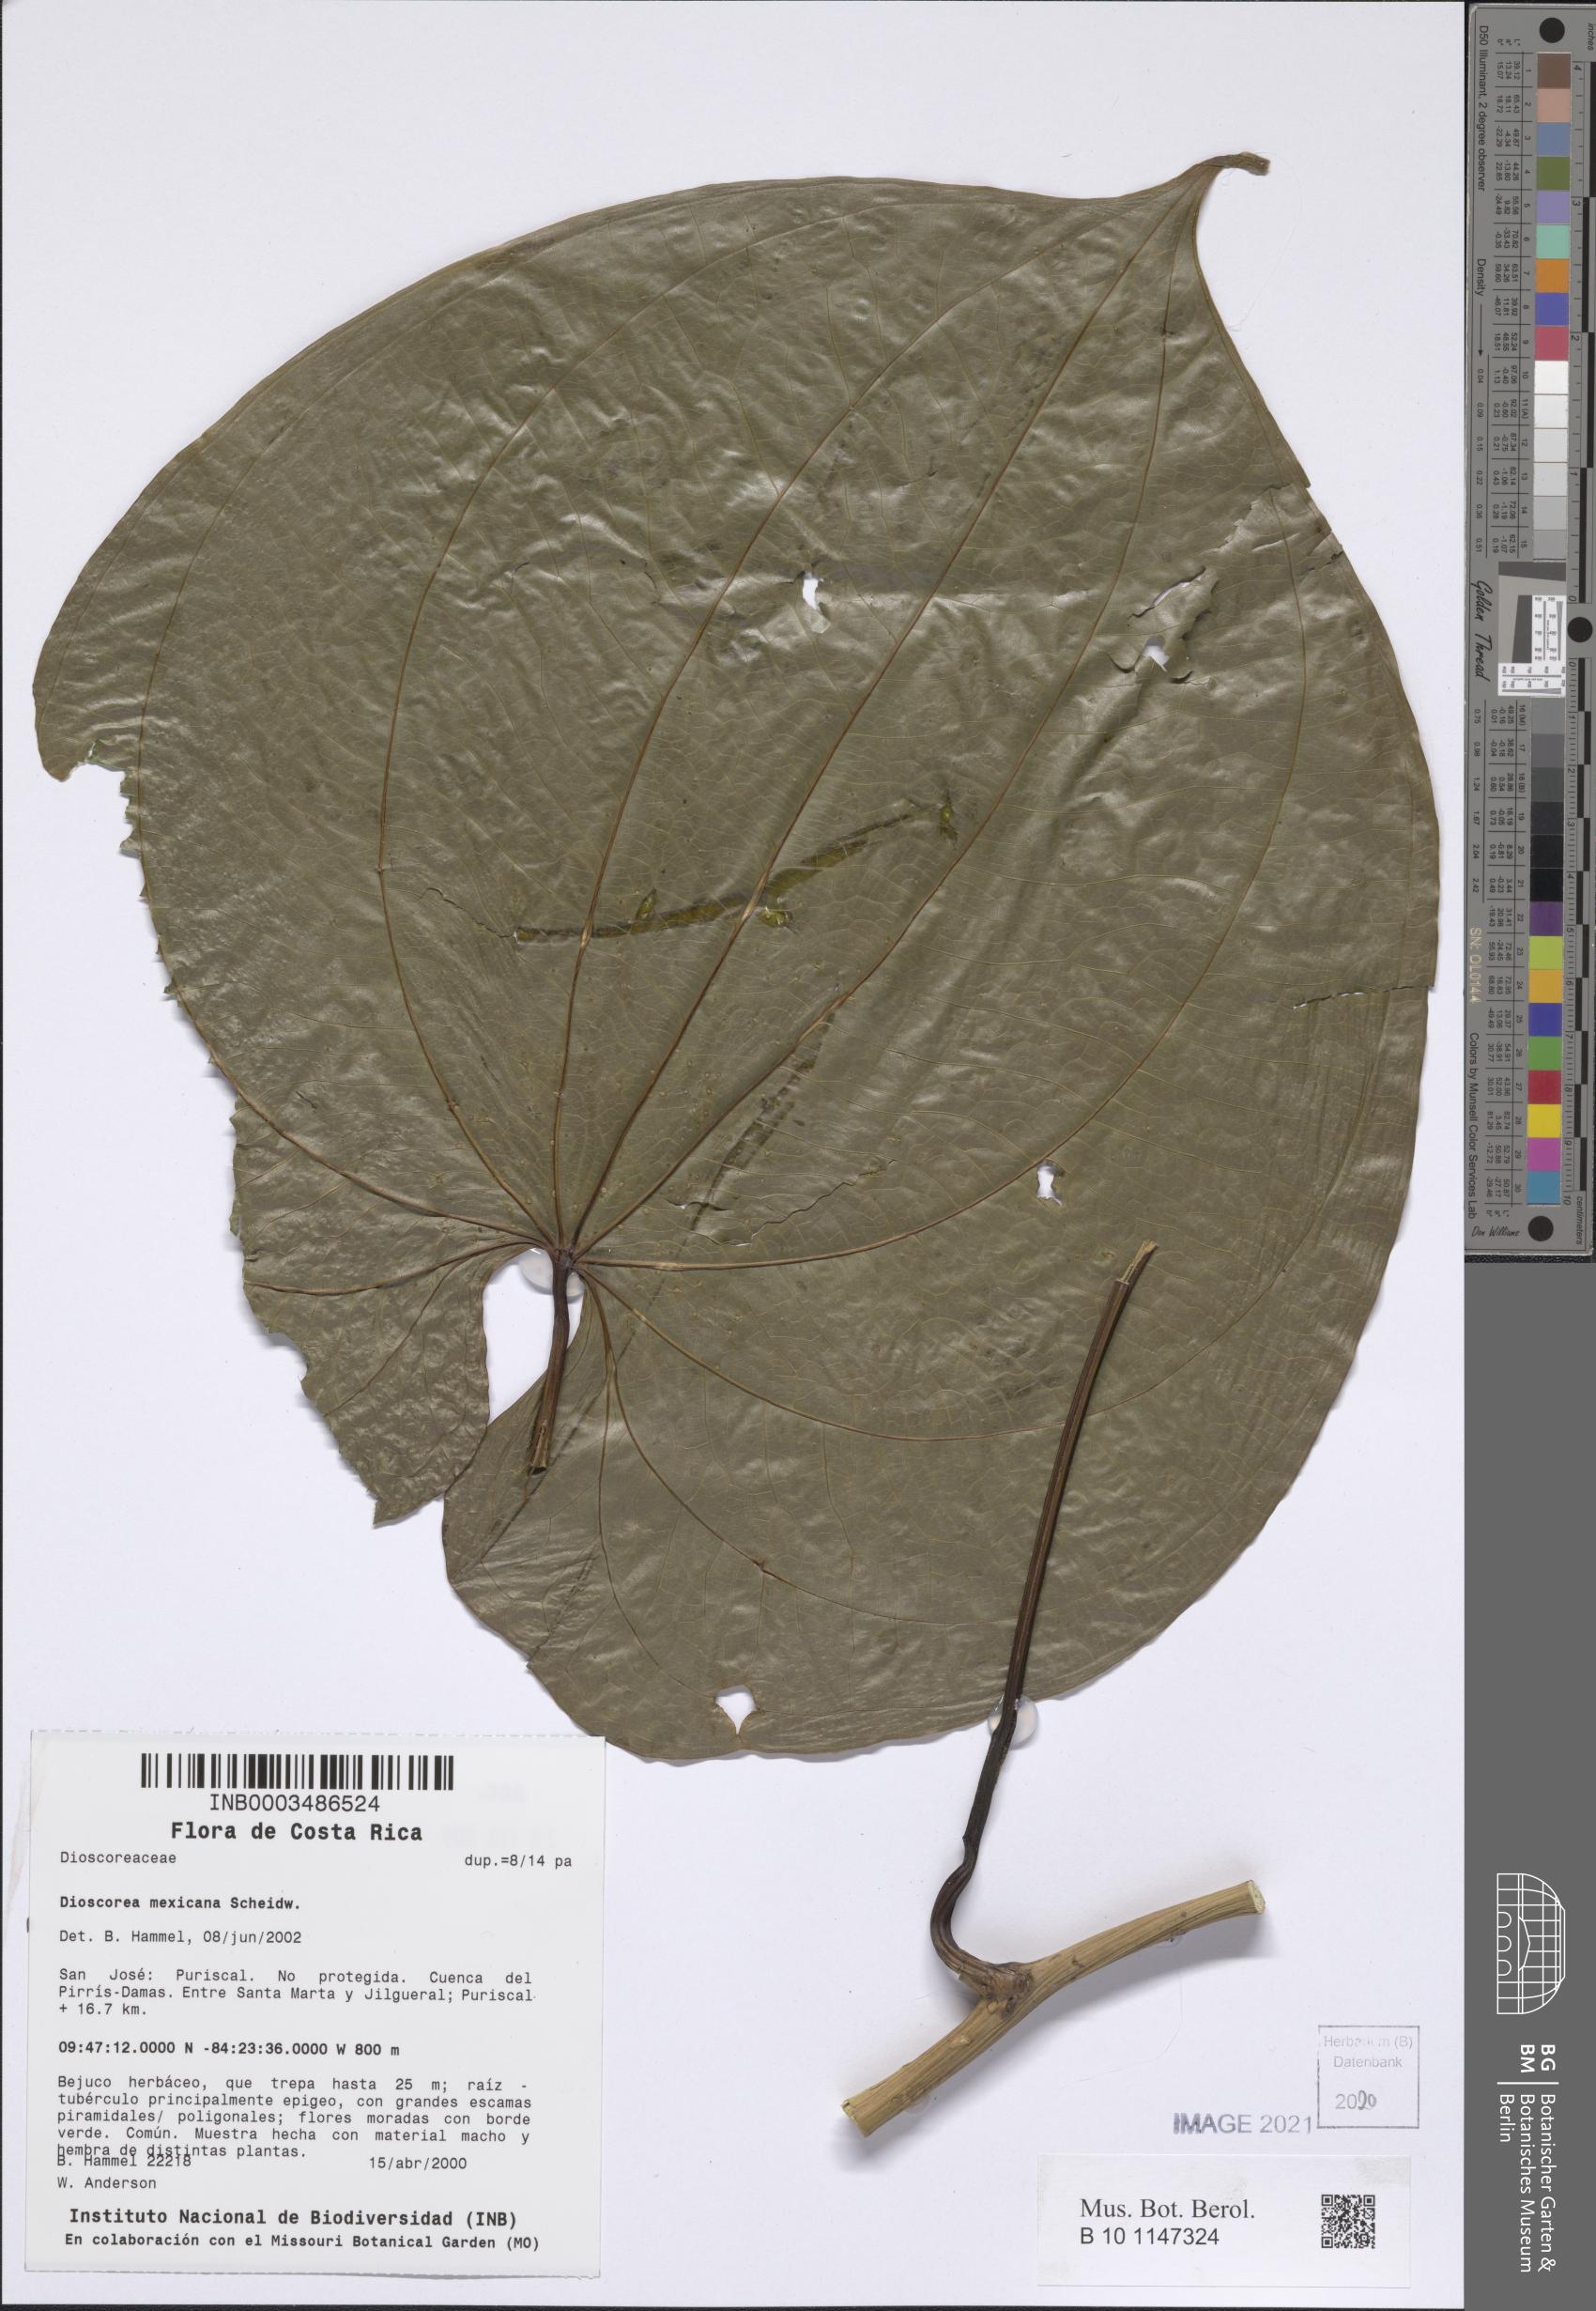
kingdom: Plantae
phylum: Tracheophyta
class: Liliopsida
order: Dioscoreales
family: Dioscoreaceae
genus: Dioscorea
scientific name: Dioscorea mexicana
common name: Mexican yam
